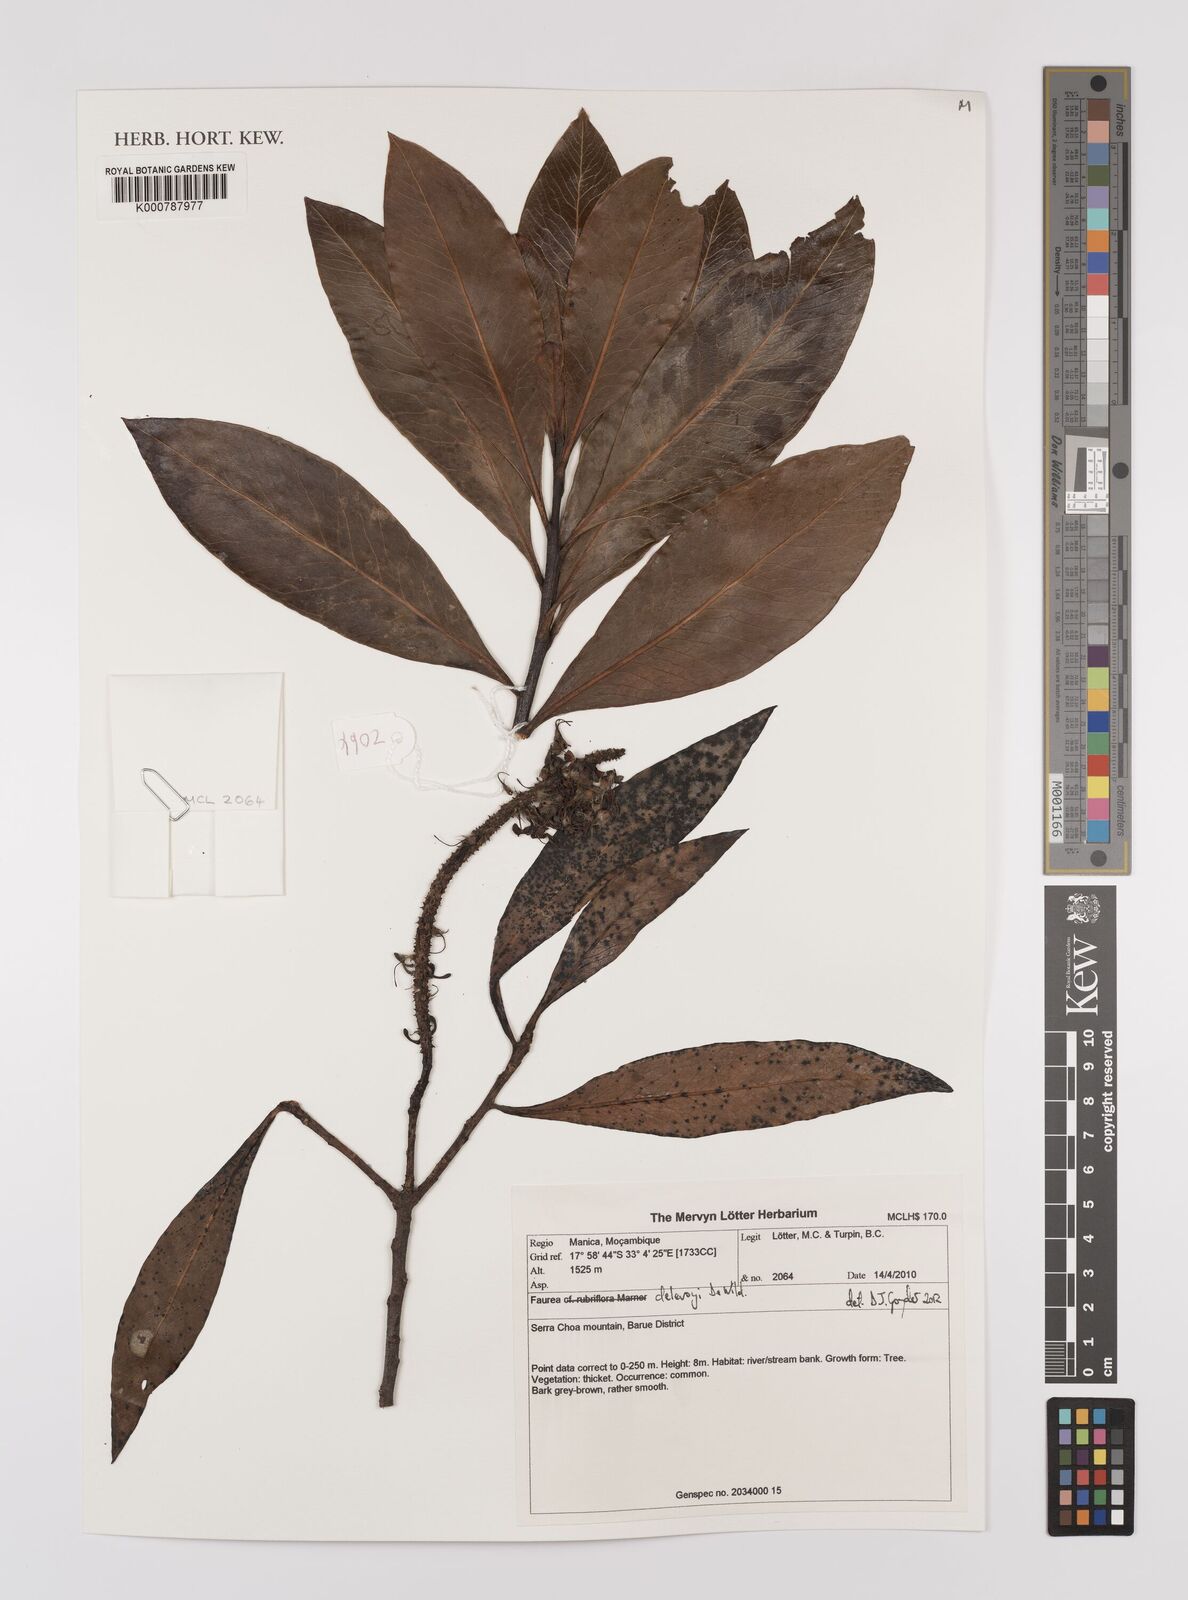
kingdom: Plantae
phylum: Tracheophyta
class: Magnoliopsida
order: Proteales
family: Proteaceae
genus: Faurea
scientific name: Faurea delevoyi
